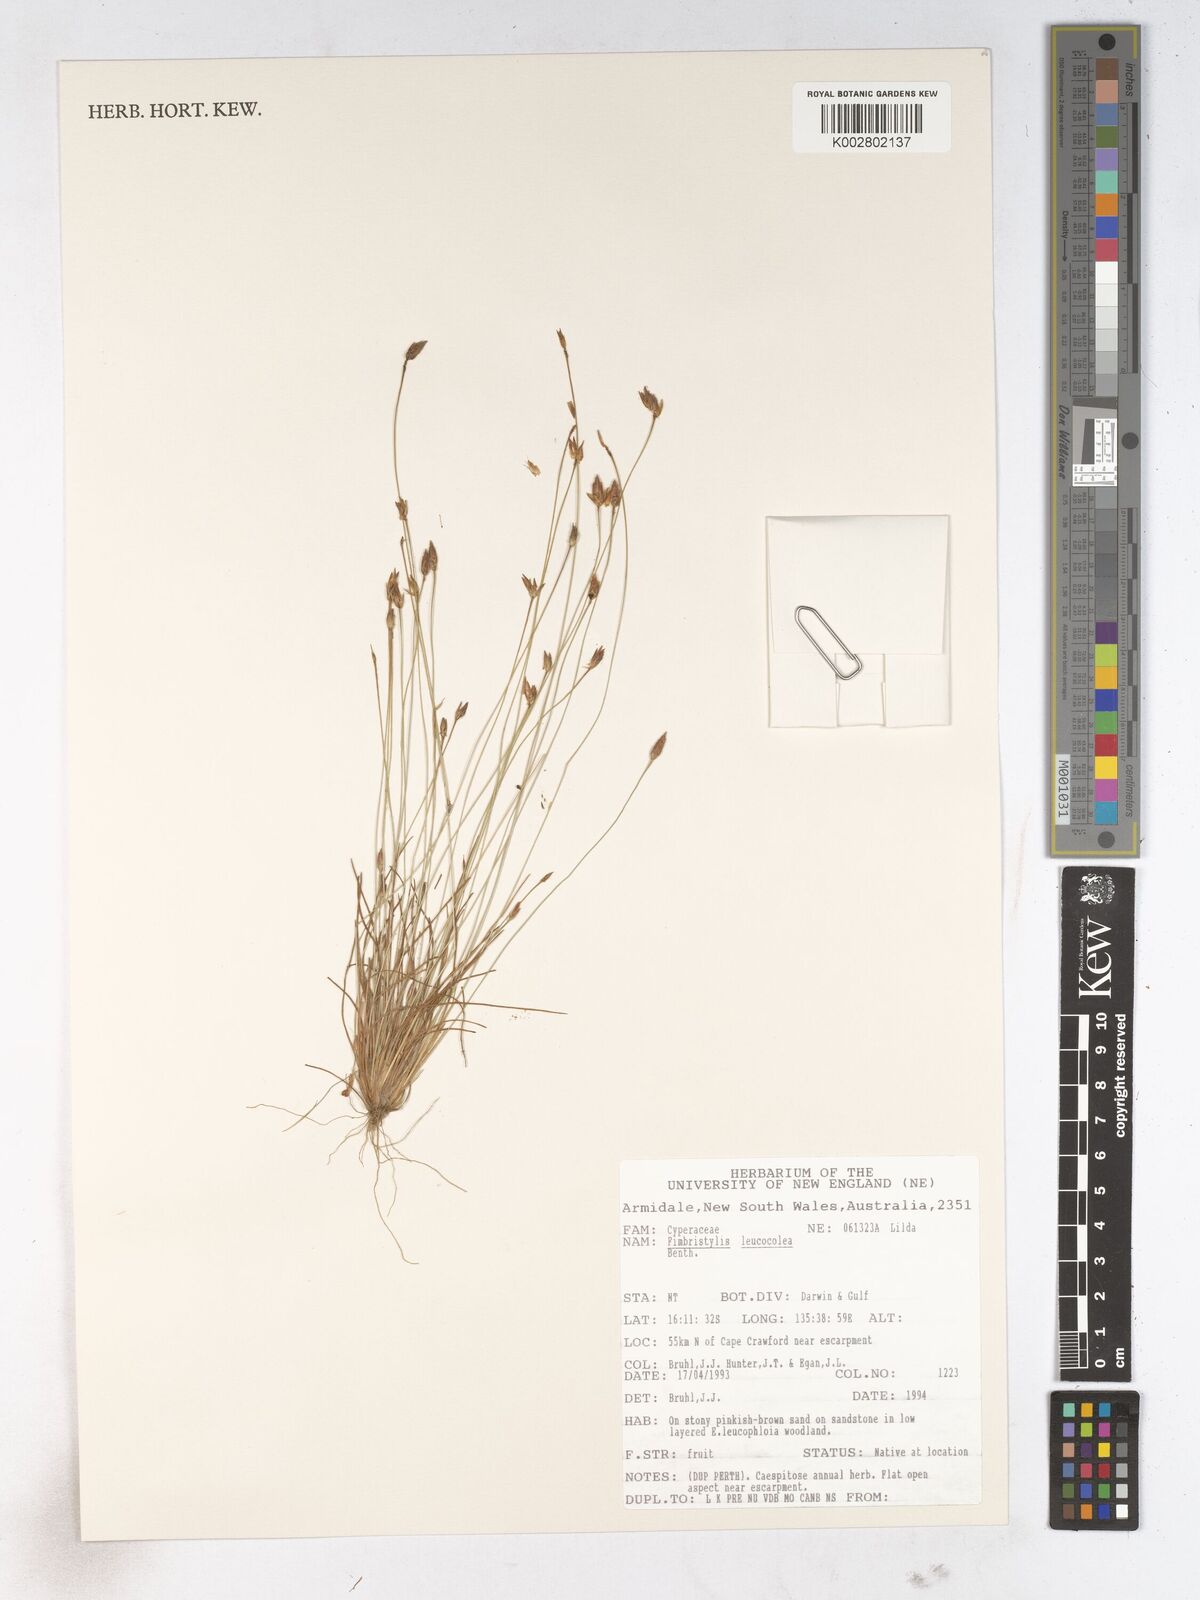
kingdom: Plantae
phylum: Tracheophyta
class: Liliopsida
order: Poales
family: Cyperaceae
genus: Fimbristylis
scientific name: Fimbristylis leucocolea
